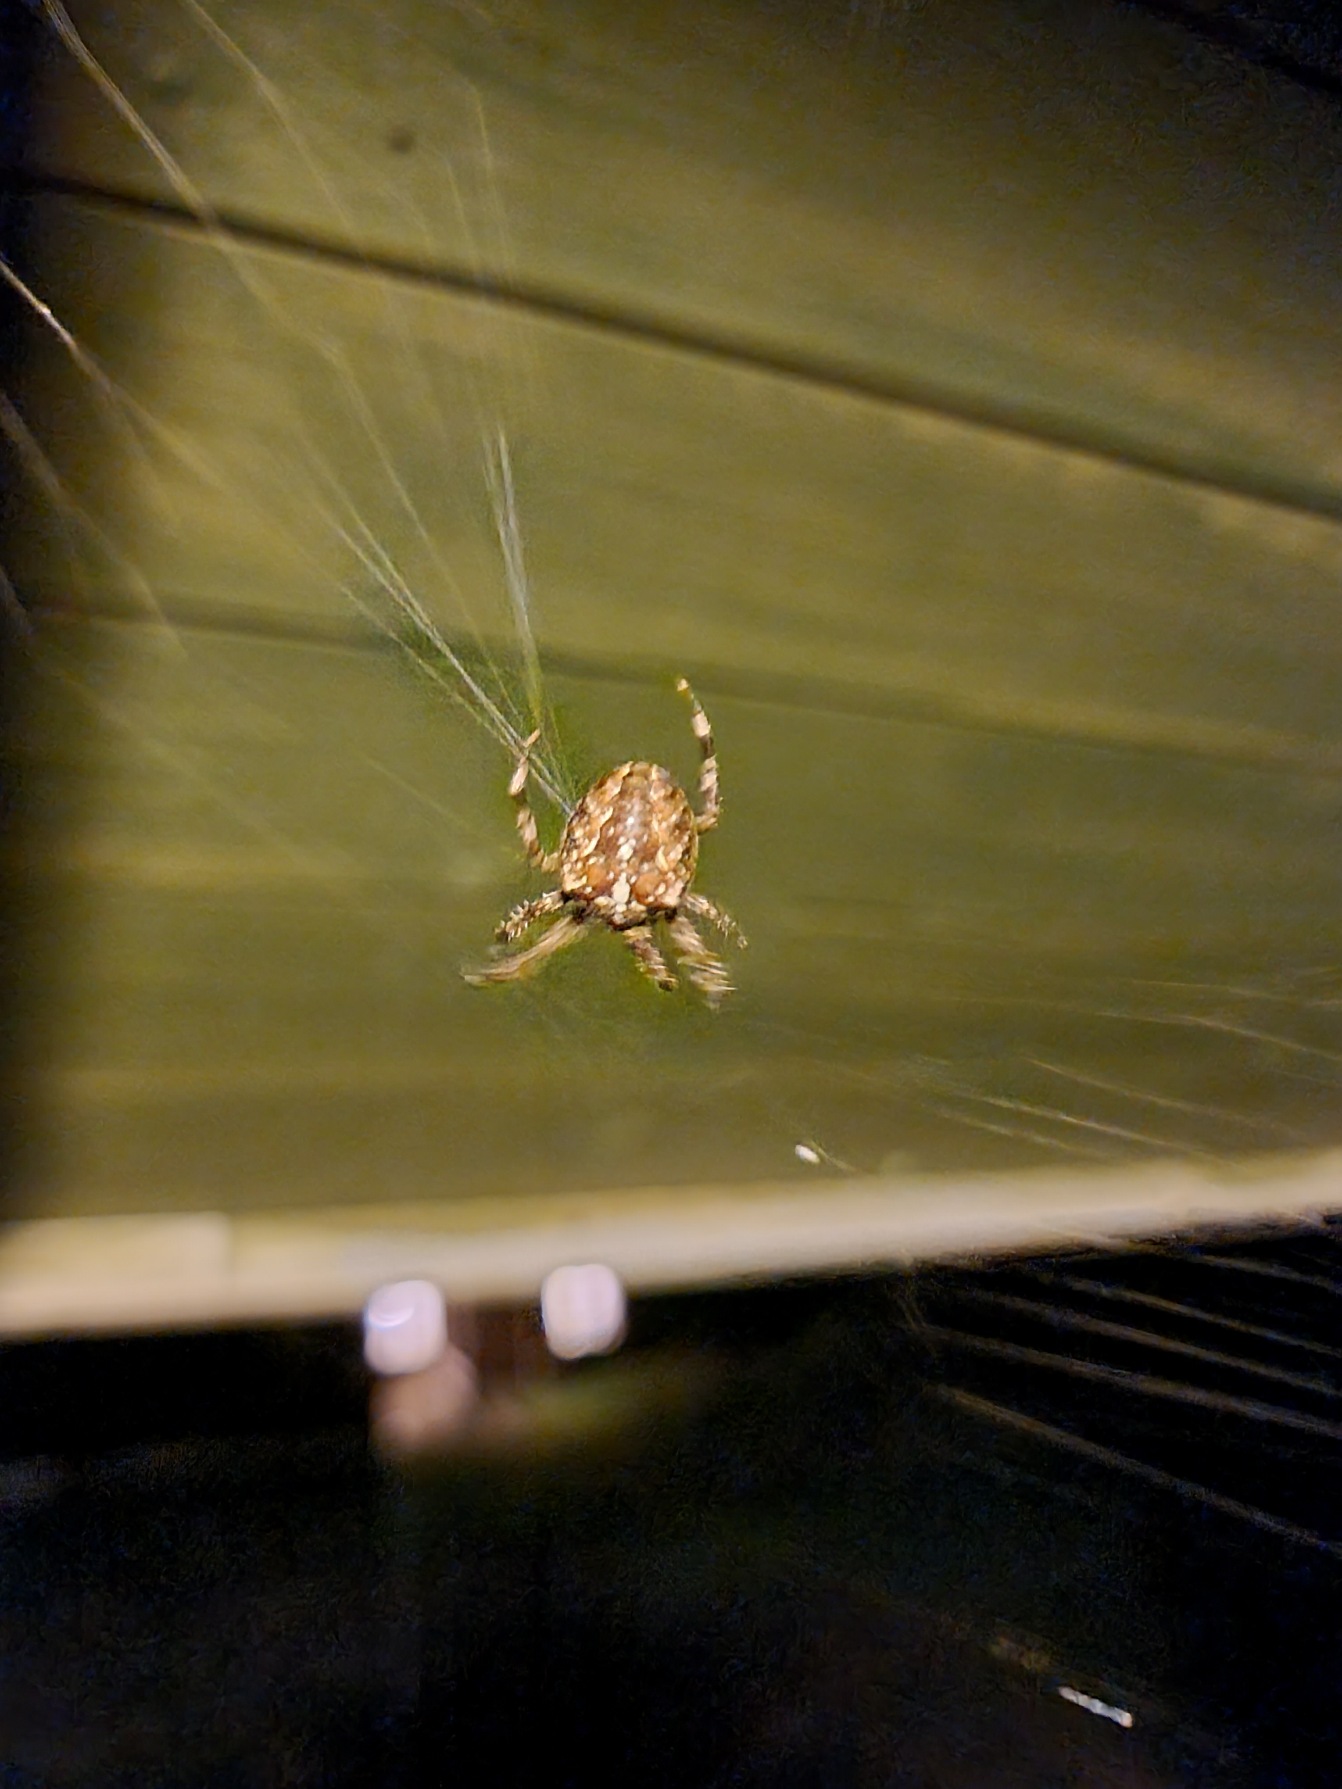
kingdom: Animalia
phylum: Arthropoda
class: Arachnida
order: Araneae
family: Araneidae
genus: Araneus
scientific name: Araneus diadematus
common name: Korsedderkop
